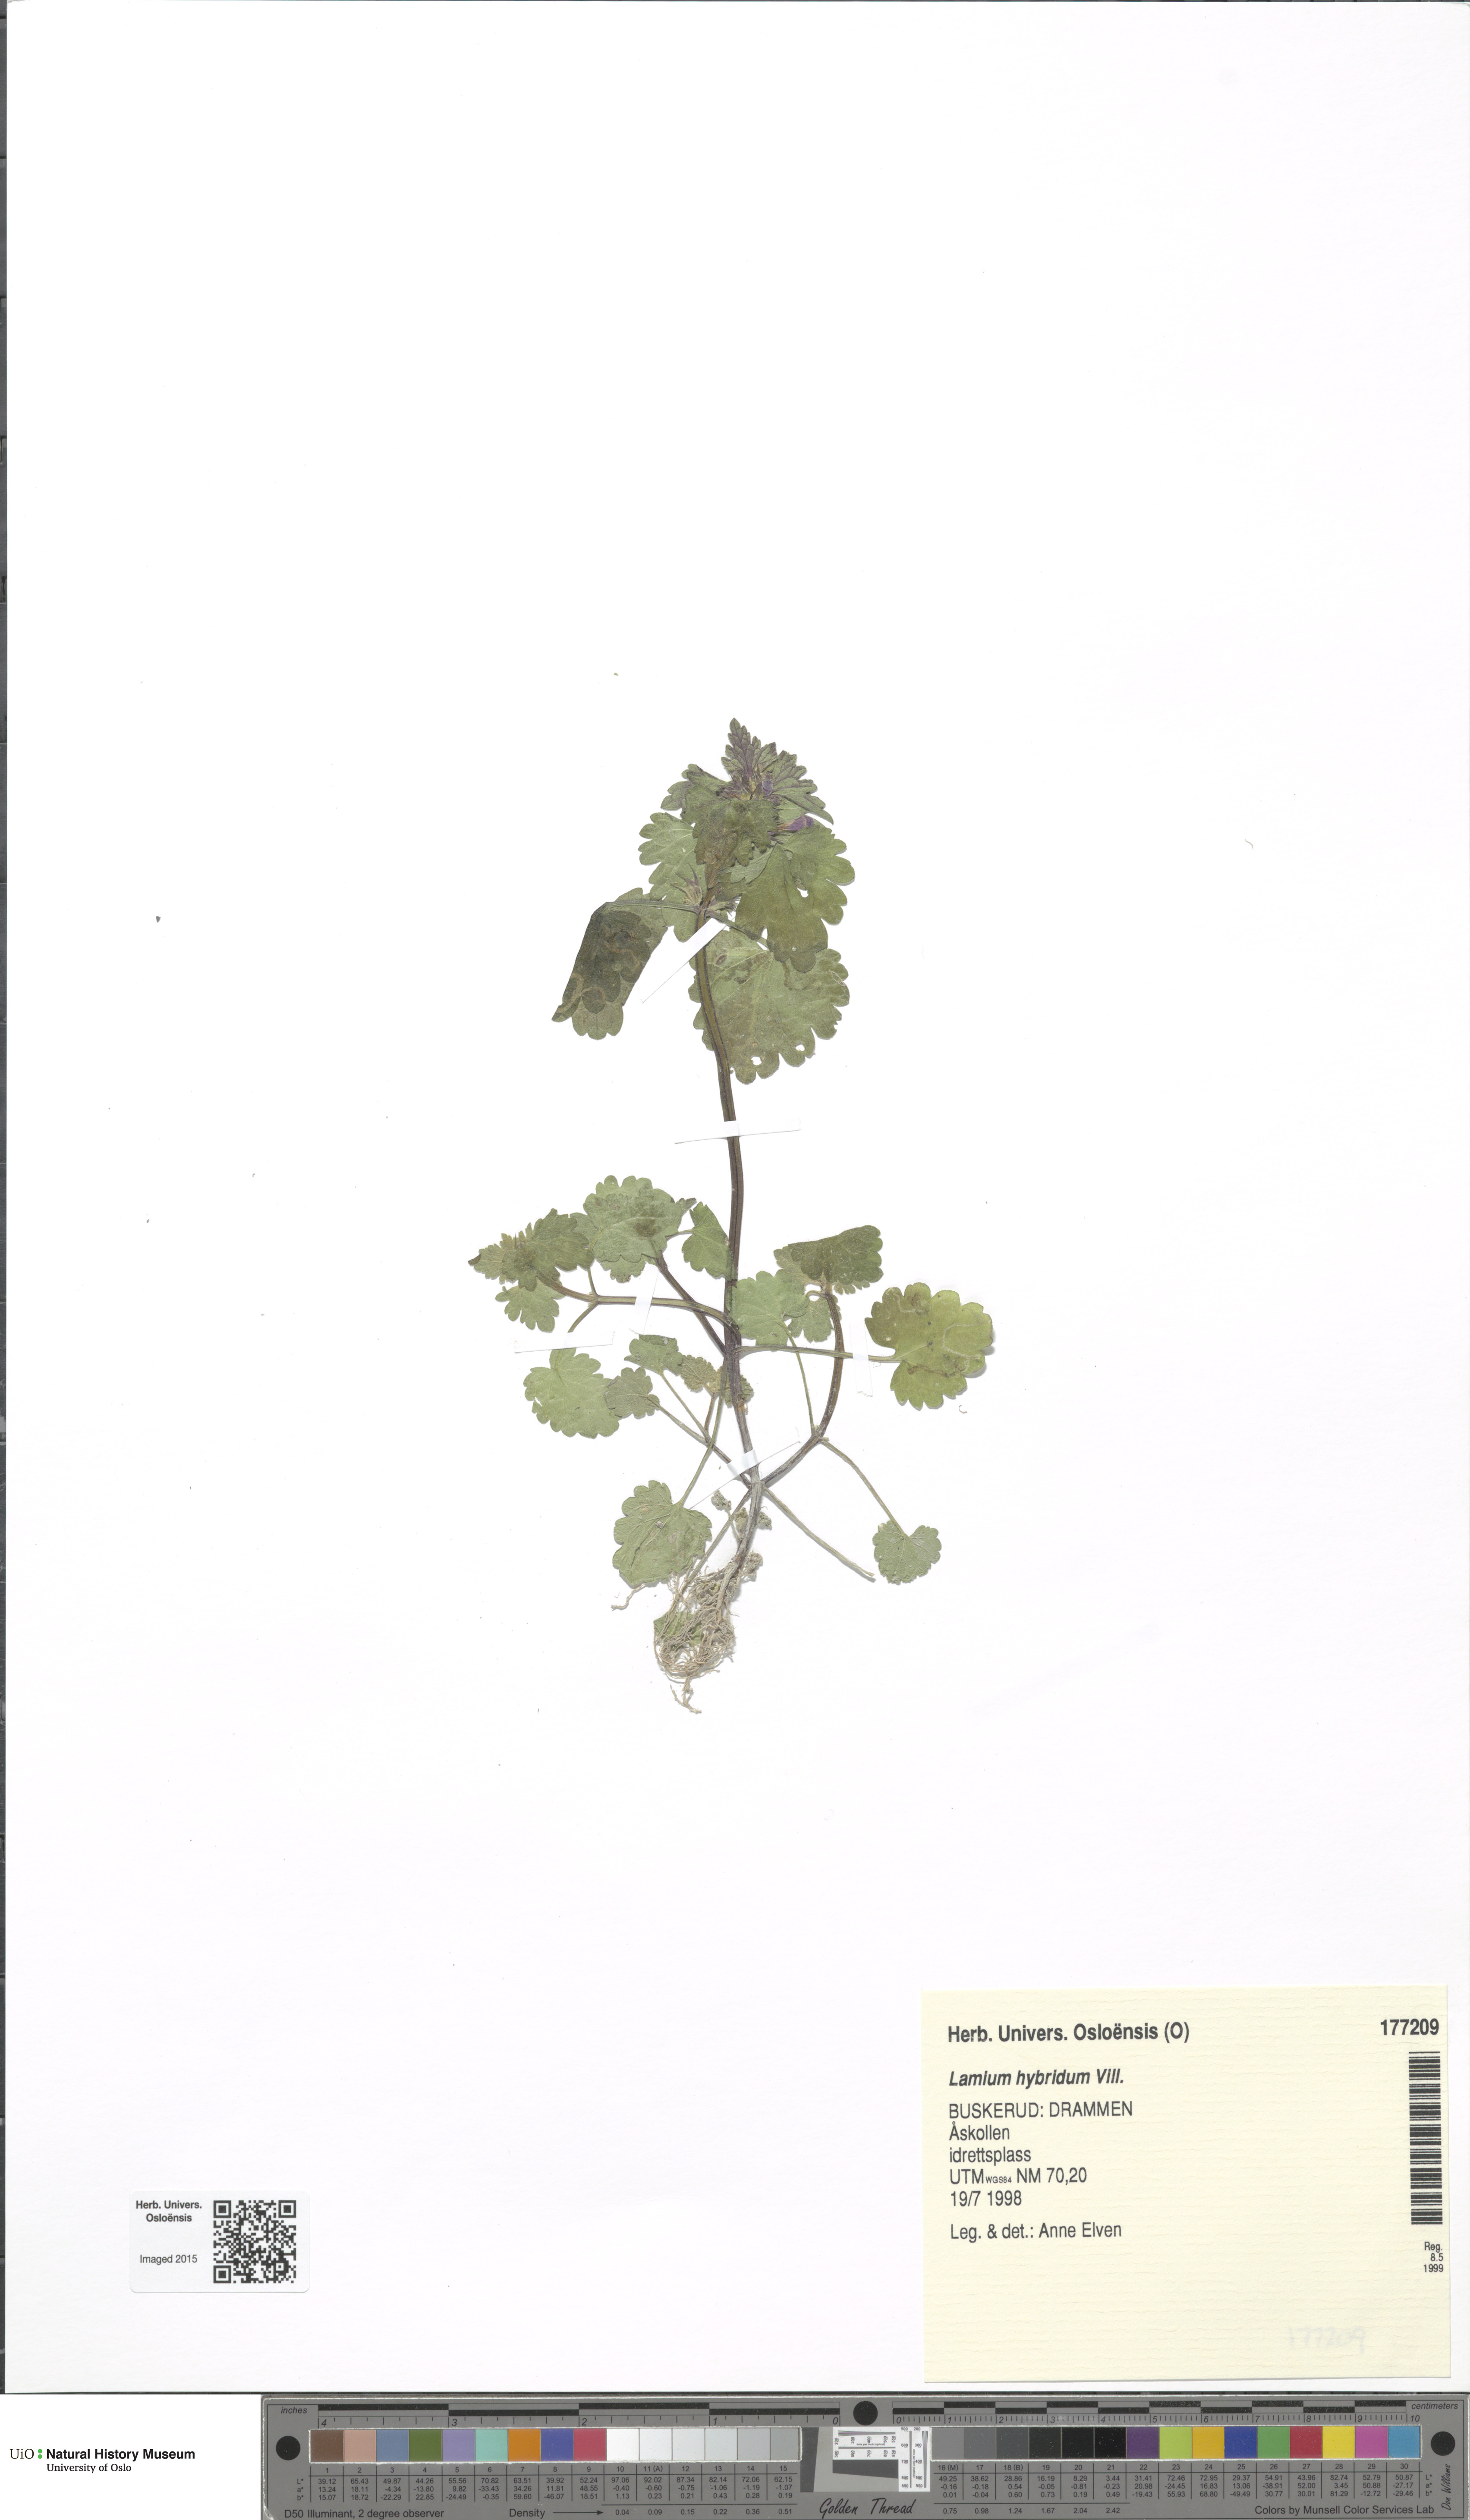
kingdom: Plantae
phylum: Tracheophyta
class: Magnoliopsida
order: Lamiales
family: Lamiaceae
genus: Lamium
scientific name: Lamium hybridum
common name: Cut-leaved dead-nettle
